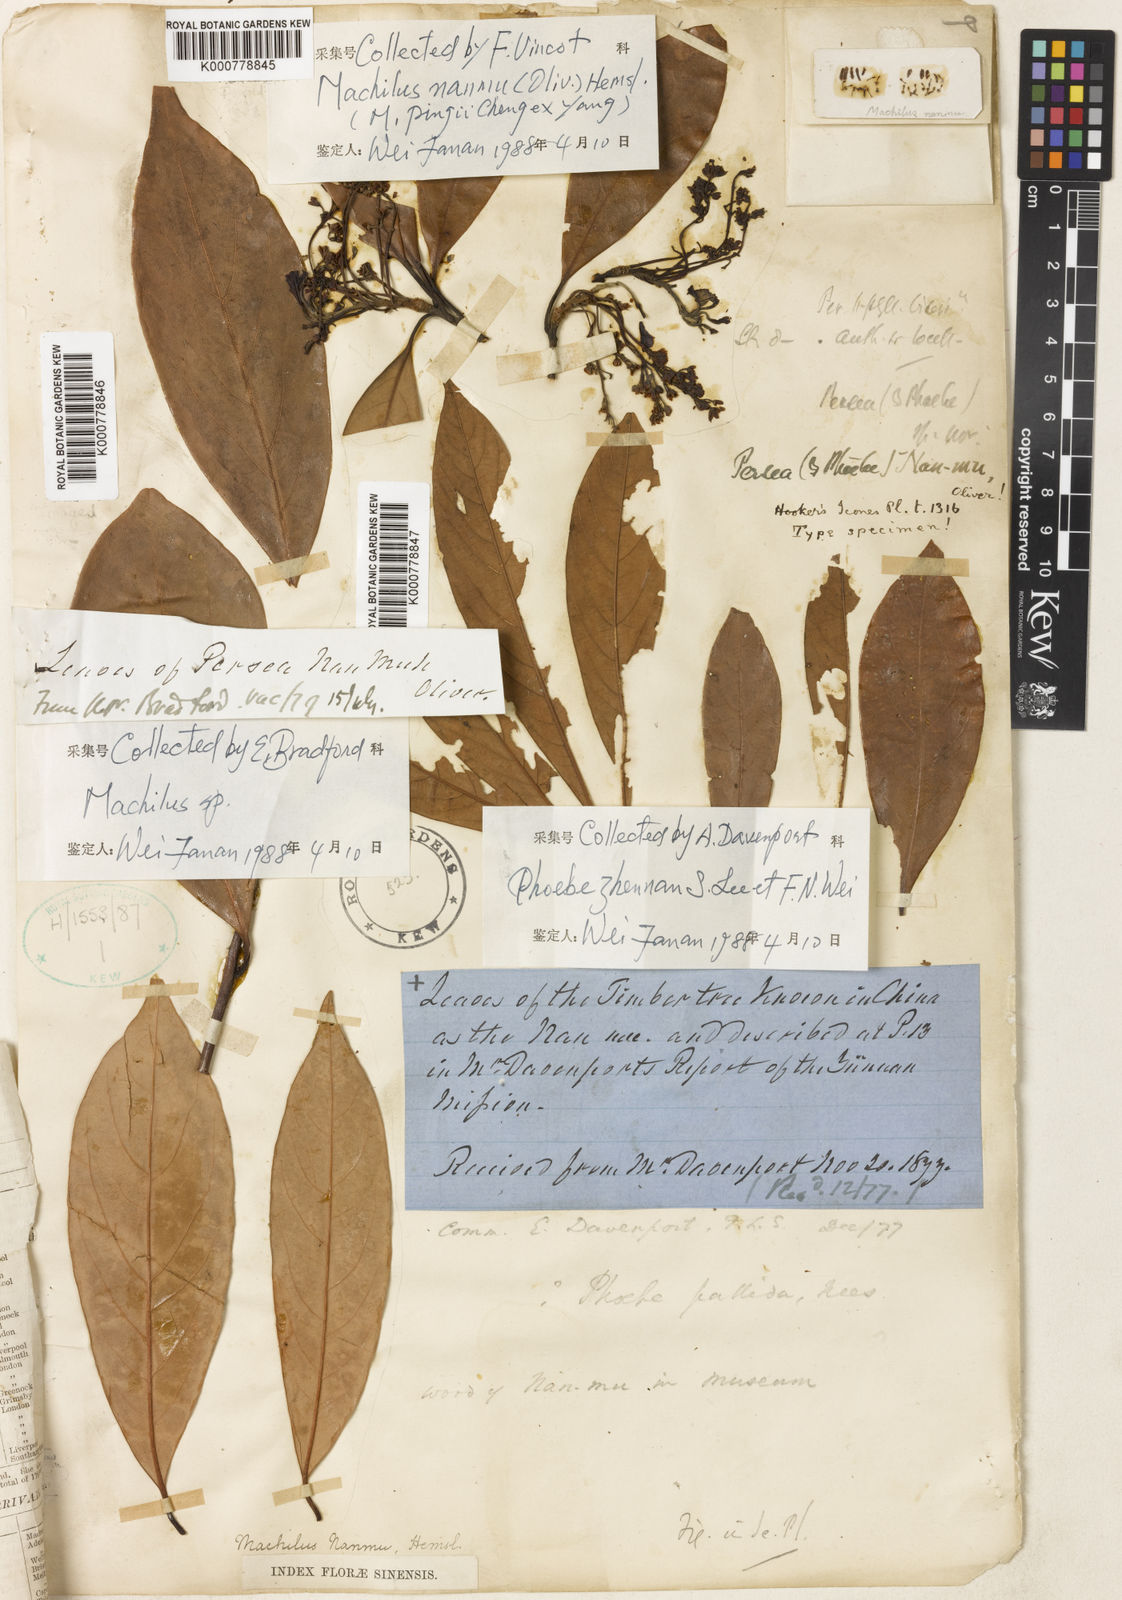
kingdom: Plantae
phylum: Tracheophyta
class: Magnoliopsida
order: Laurales
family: Lauraceae
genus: Machilus
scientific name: Machilus nanmu
